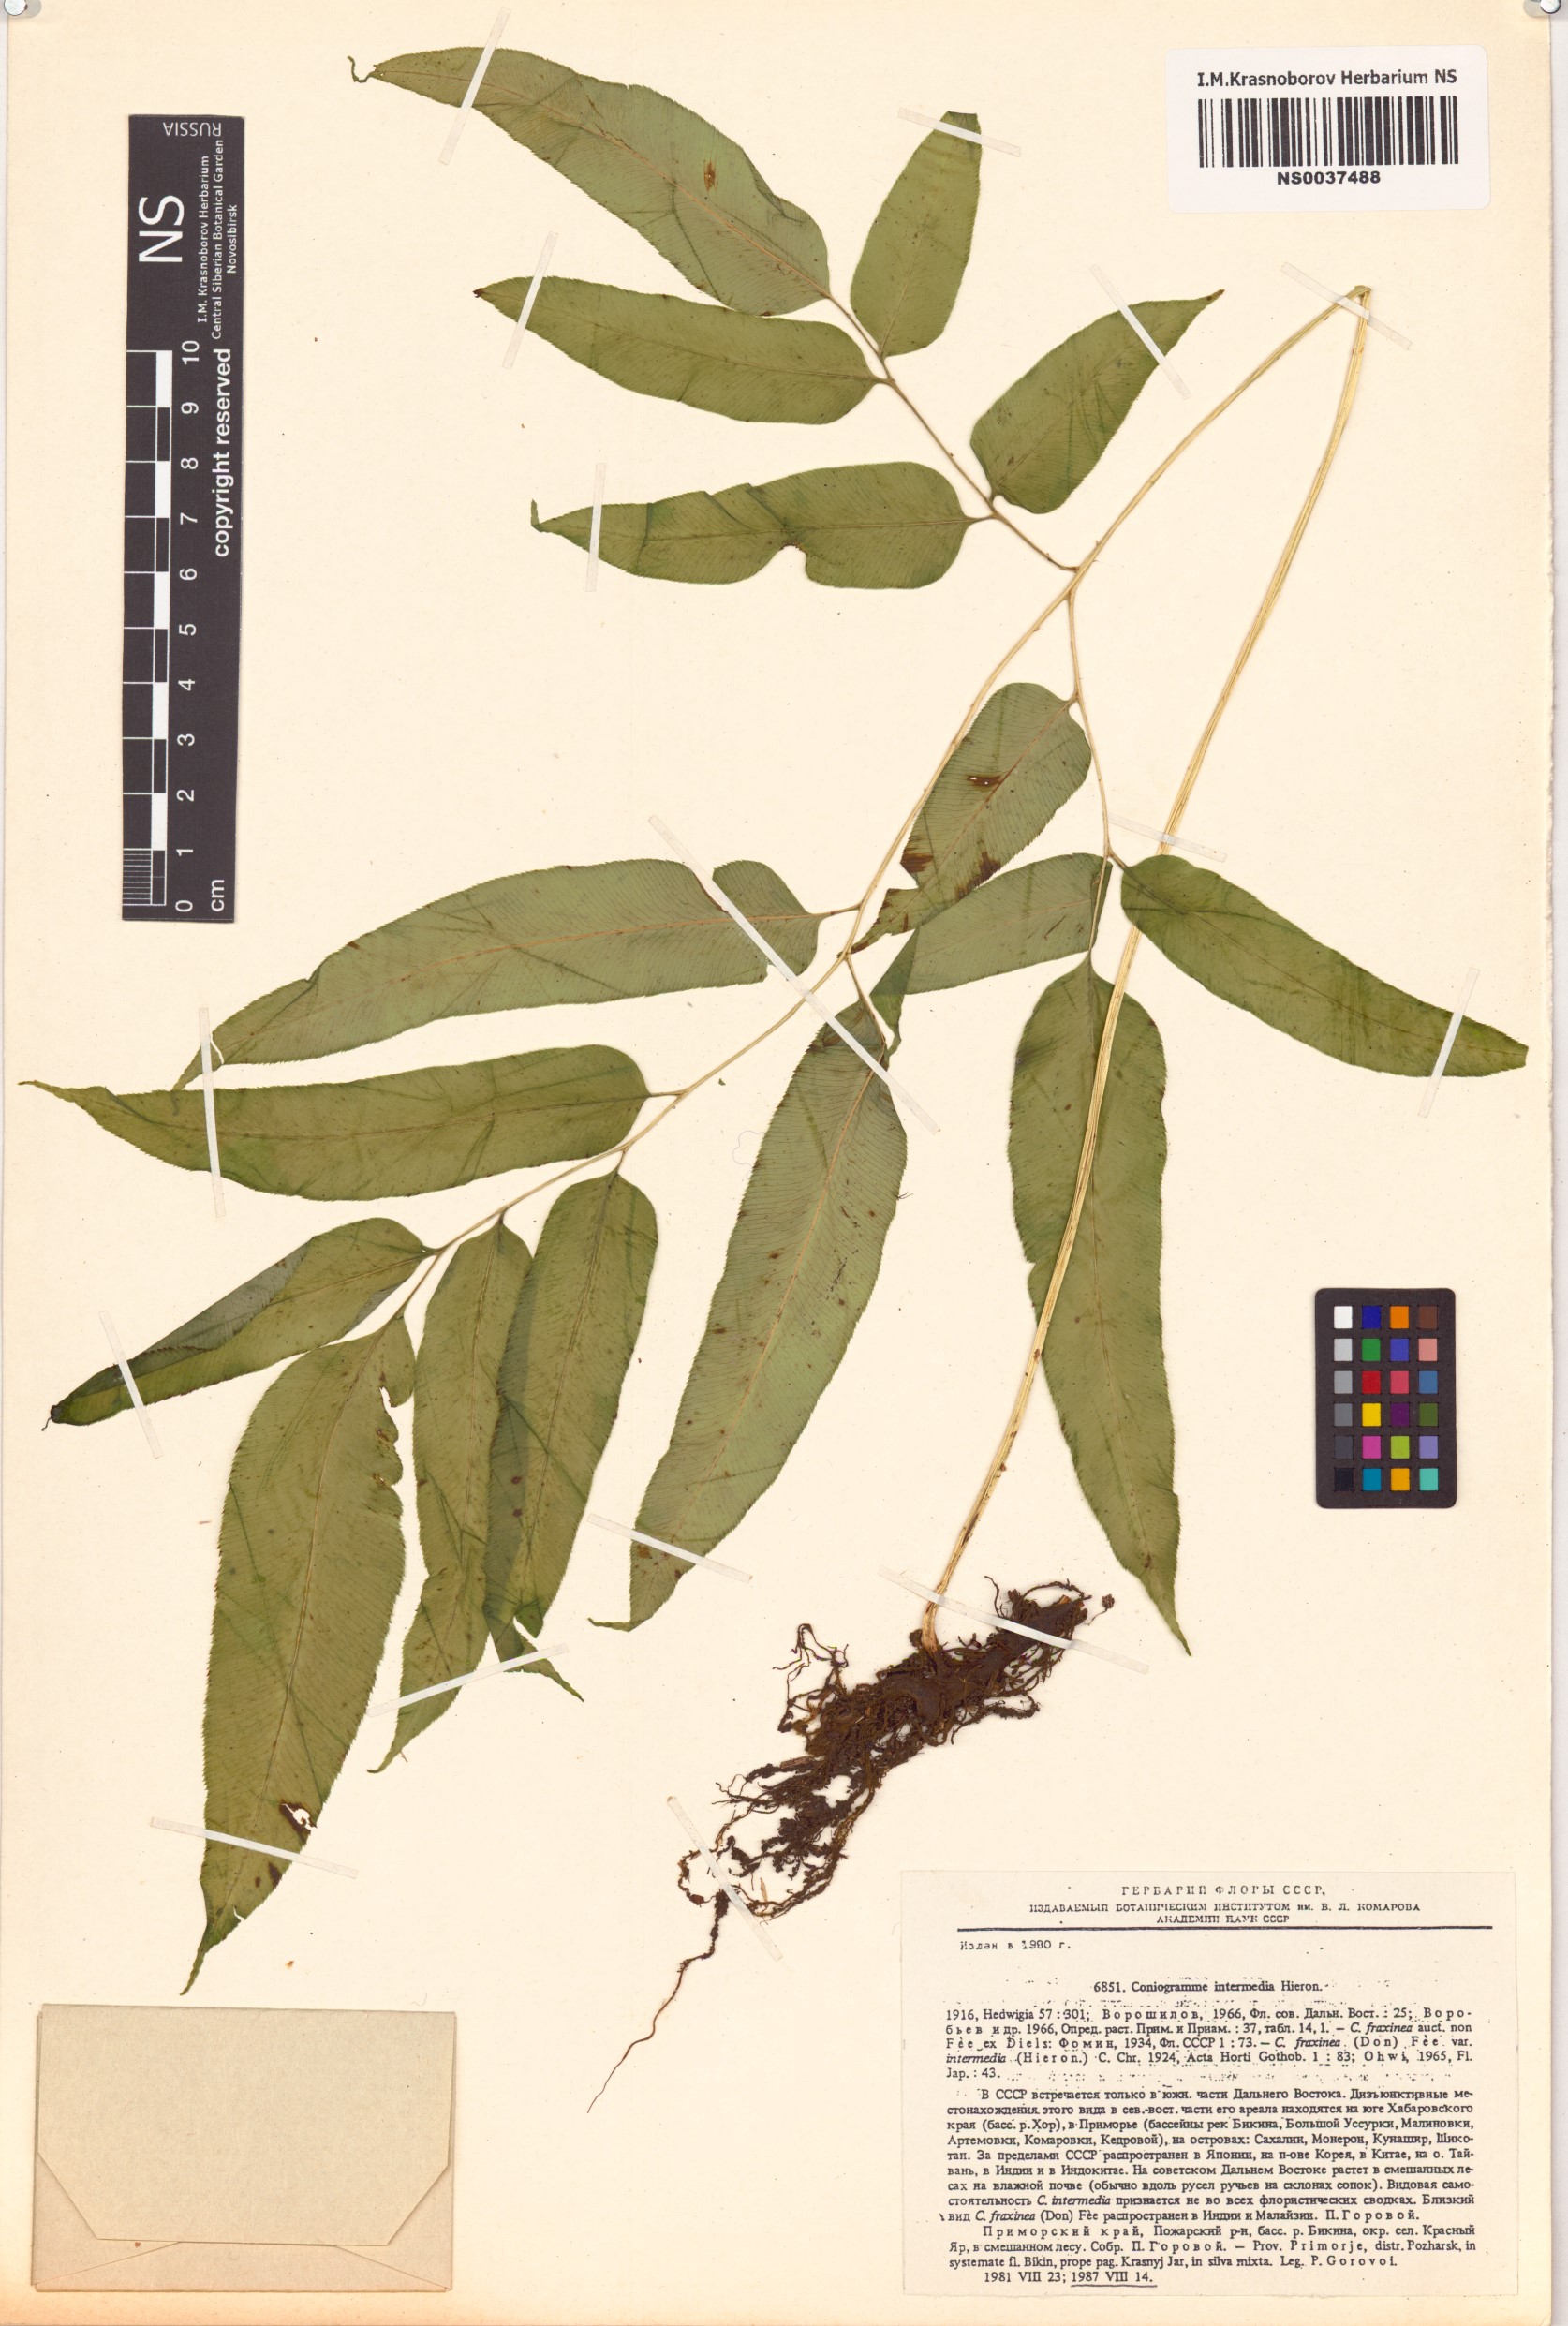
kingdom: Plantae
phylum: Tracheophyta
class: Polypodiopsida
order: Polypodiales
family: Pteridaceae
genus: Coniogramme
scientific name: Coniogramme intermedia
